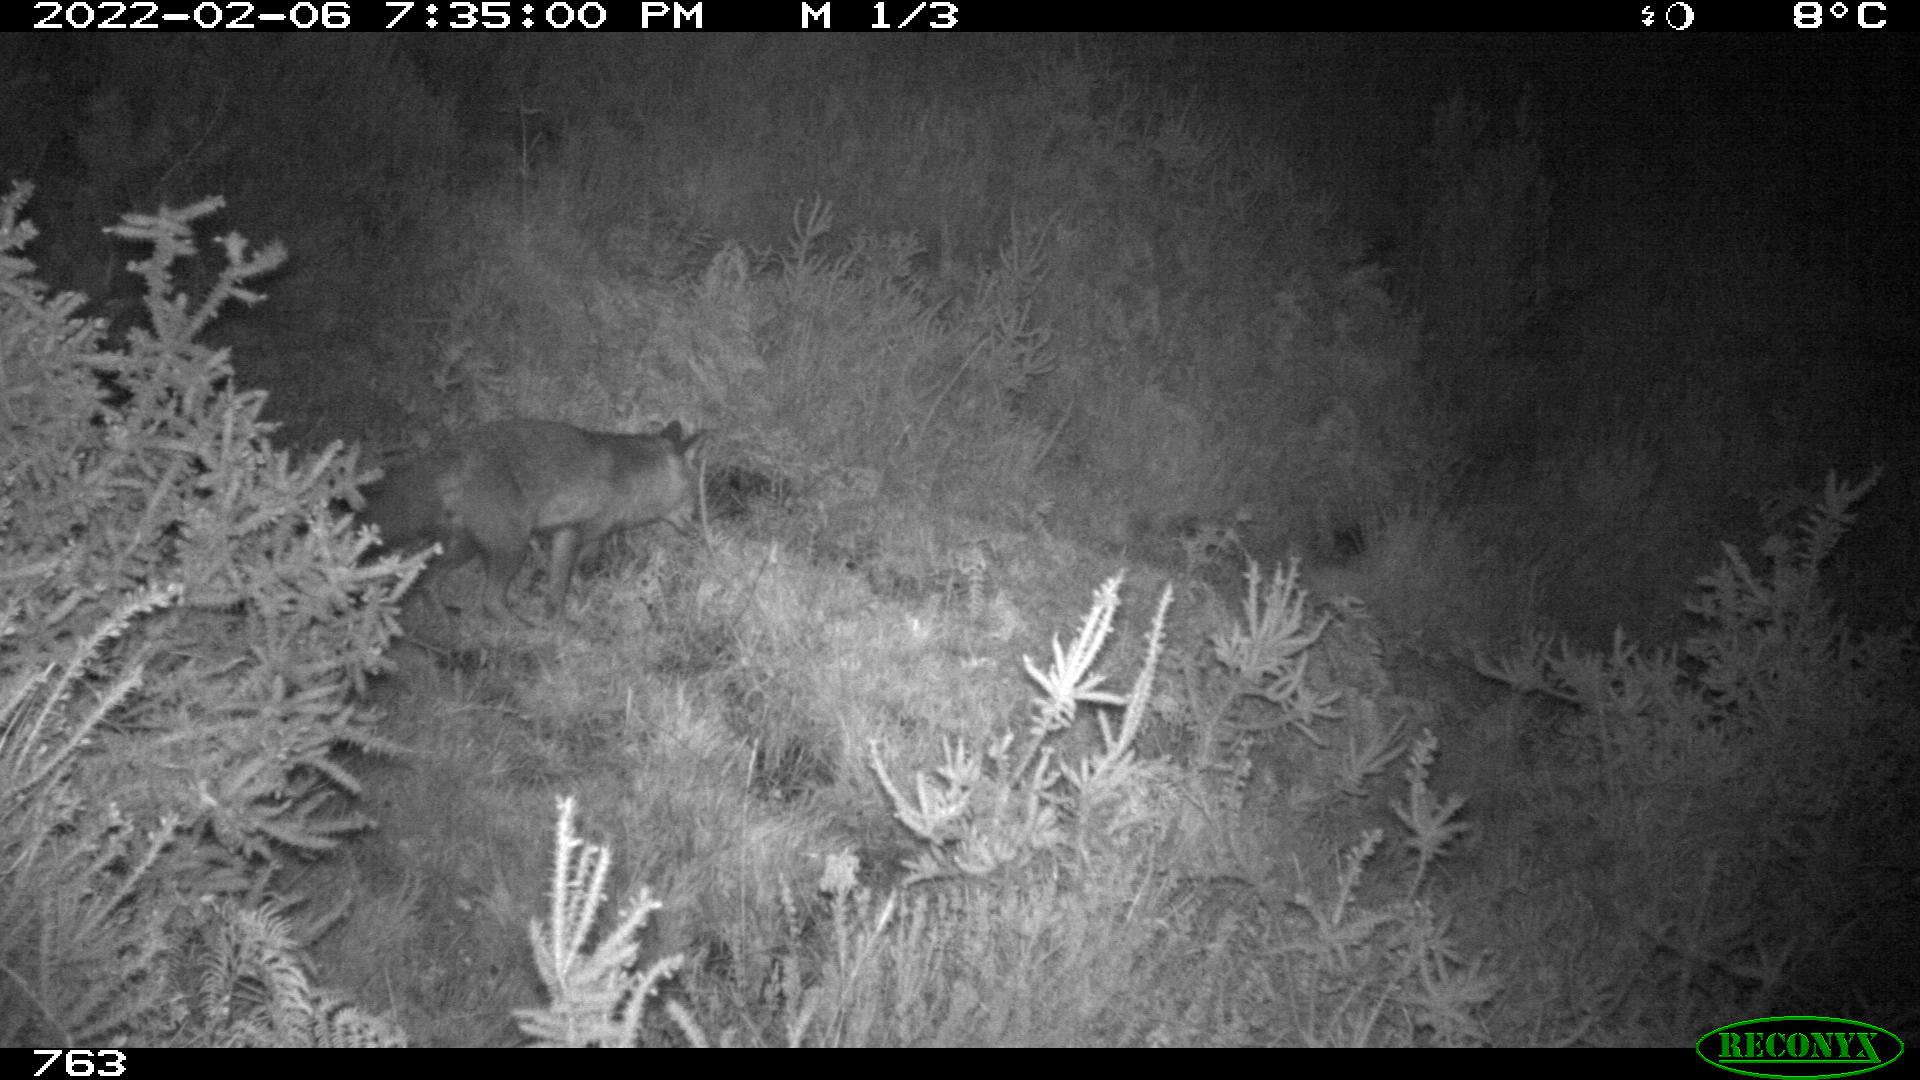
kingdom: Animalia
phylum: Chordata
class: Mammalia
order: Carnivora
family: Canidae
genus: Vulpes
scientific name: Vulpes vulpes
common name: Red fox
